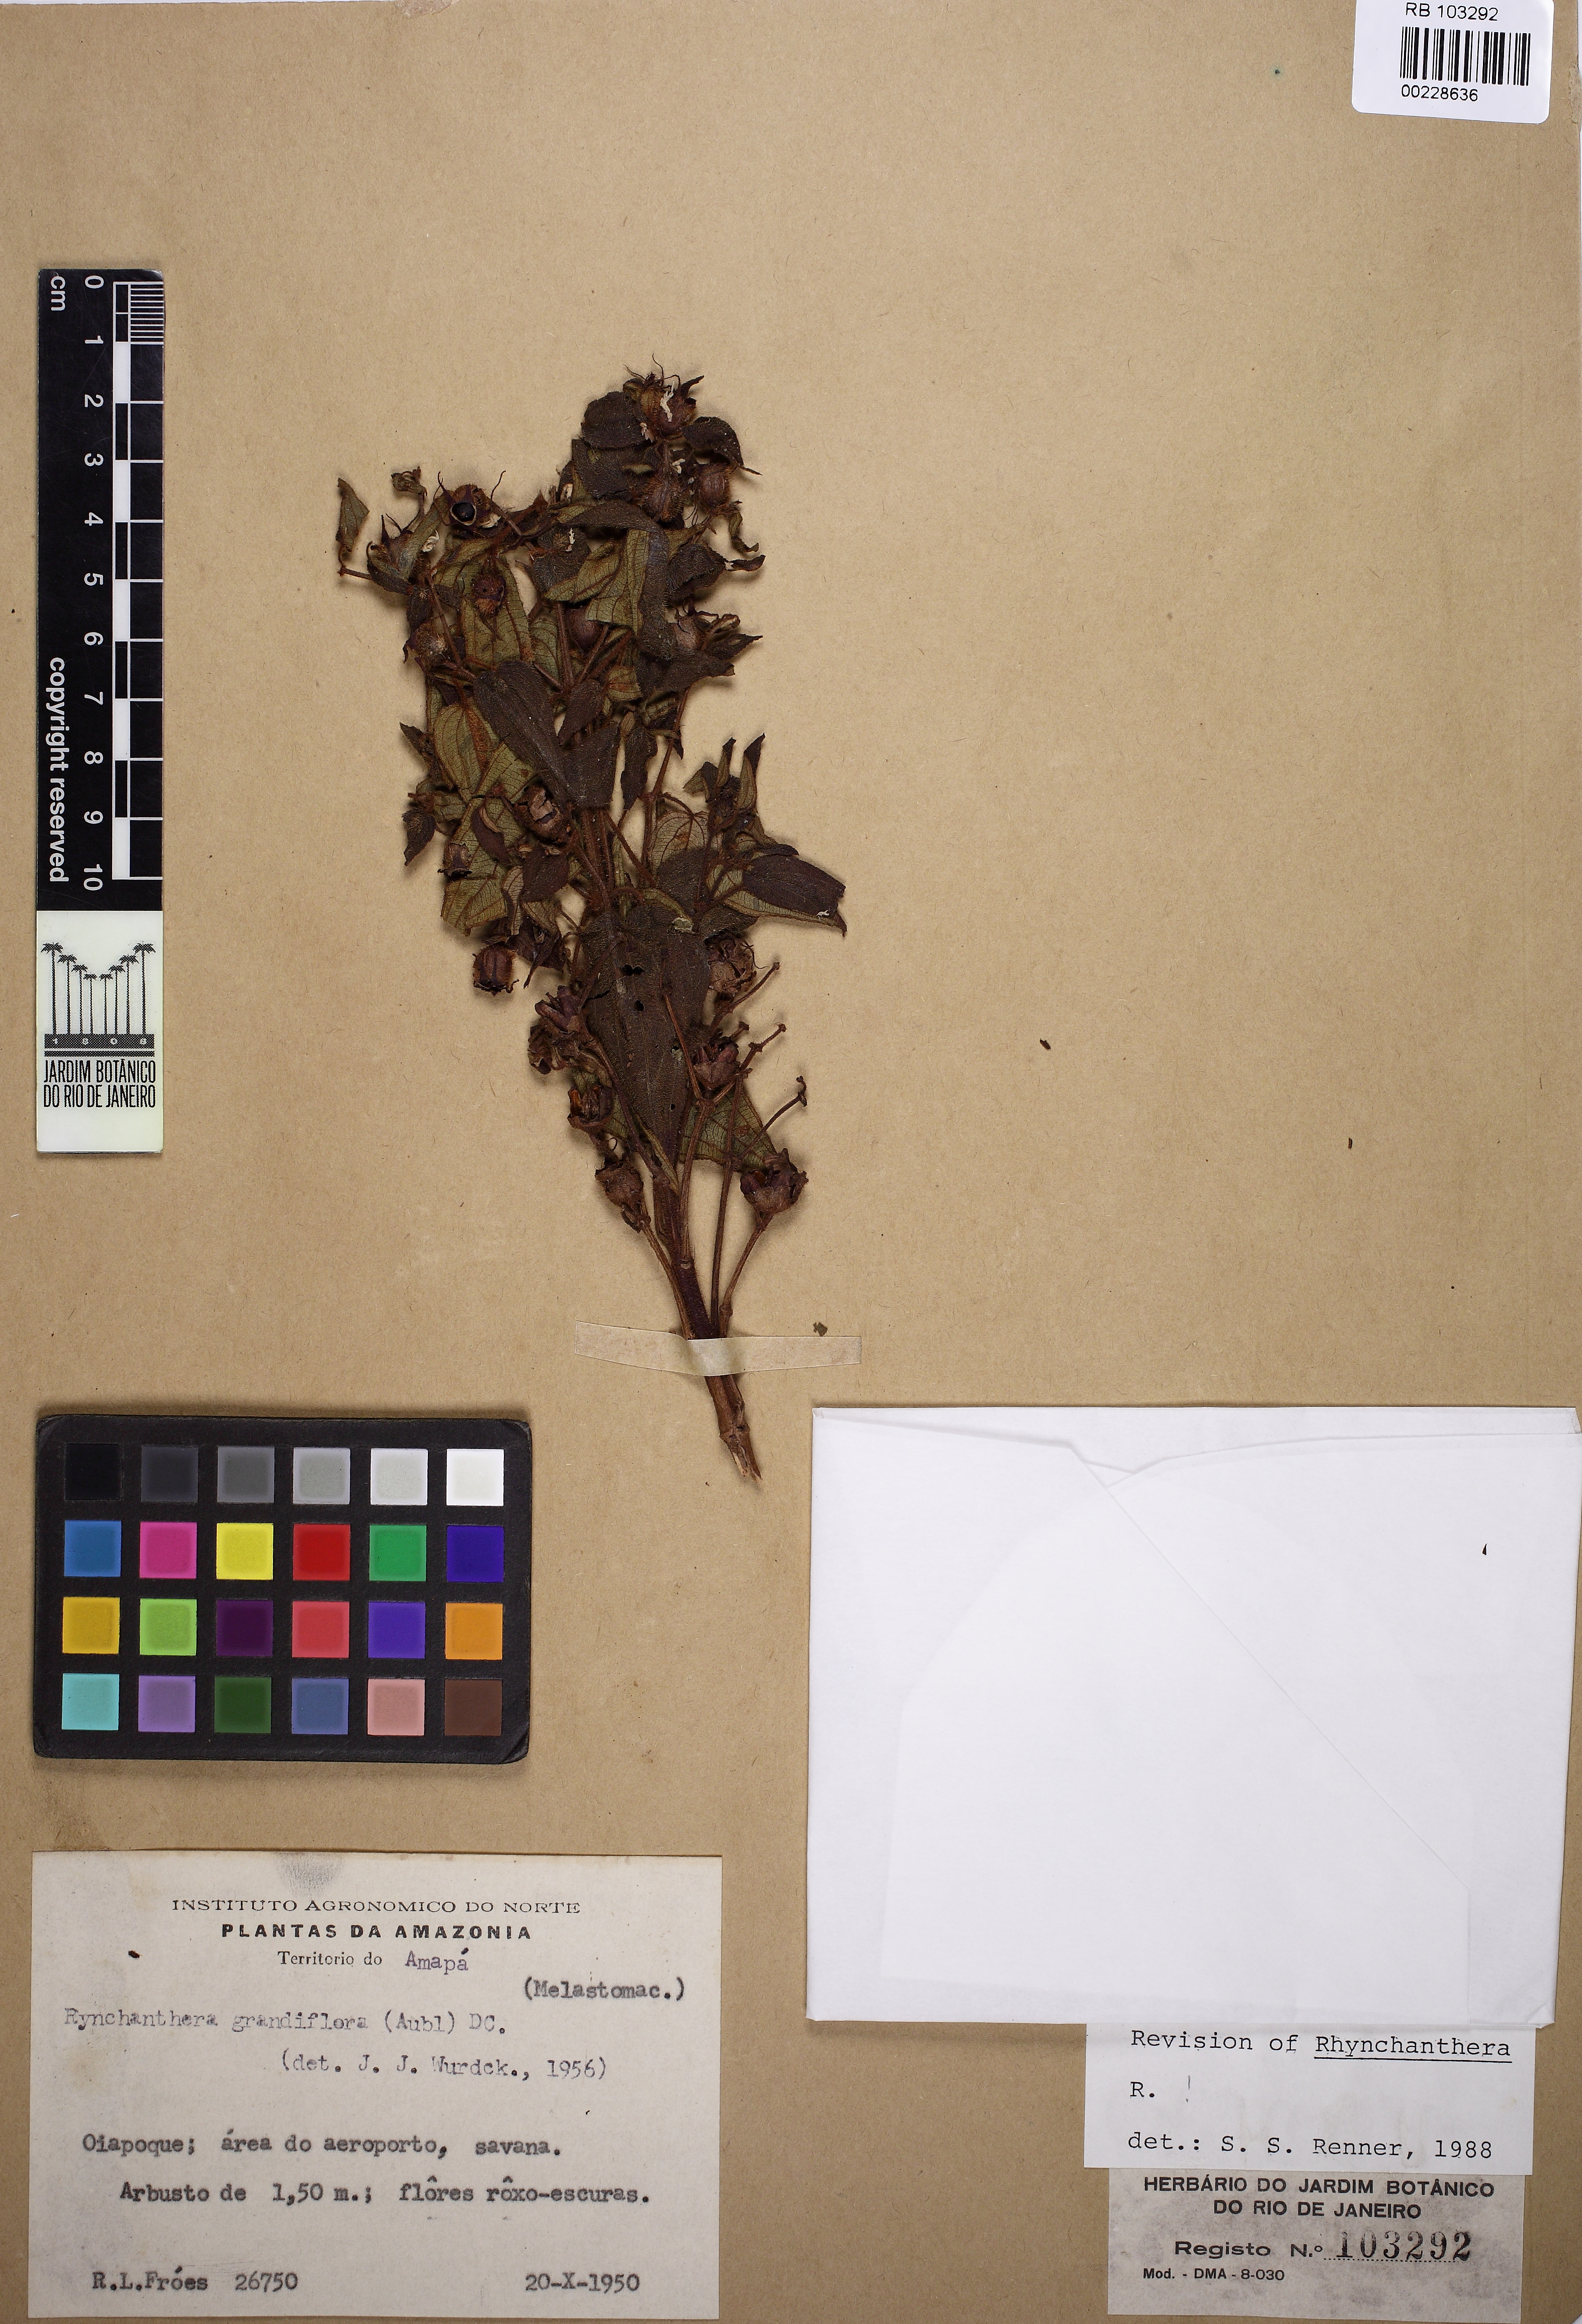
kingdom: Plantae
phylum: Tracheophyta
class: Magnoliopsida
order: Myrtales
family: Melastomataceae
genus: Rhynchanthera
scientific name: Rhynchanthera grandiflora
